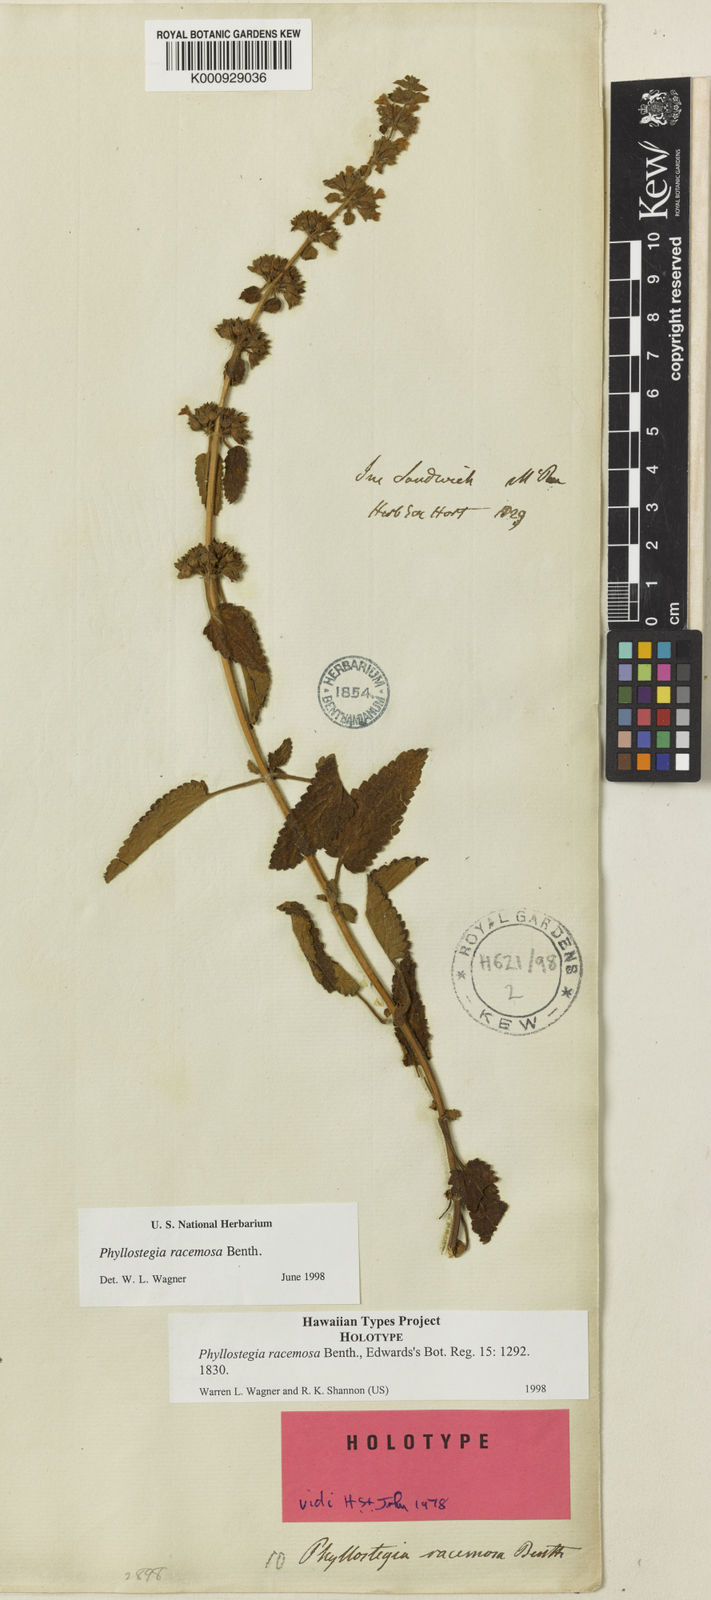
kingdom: Plantae
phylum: Tracheophyta
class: Magnoliopsida
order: Lamiales
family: Lamiaceae
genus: Phyllostegia
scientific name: Phyllostegia racemosa
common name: Racemed phyllostegia
